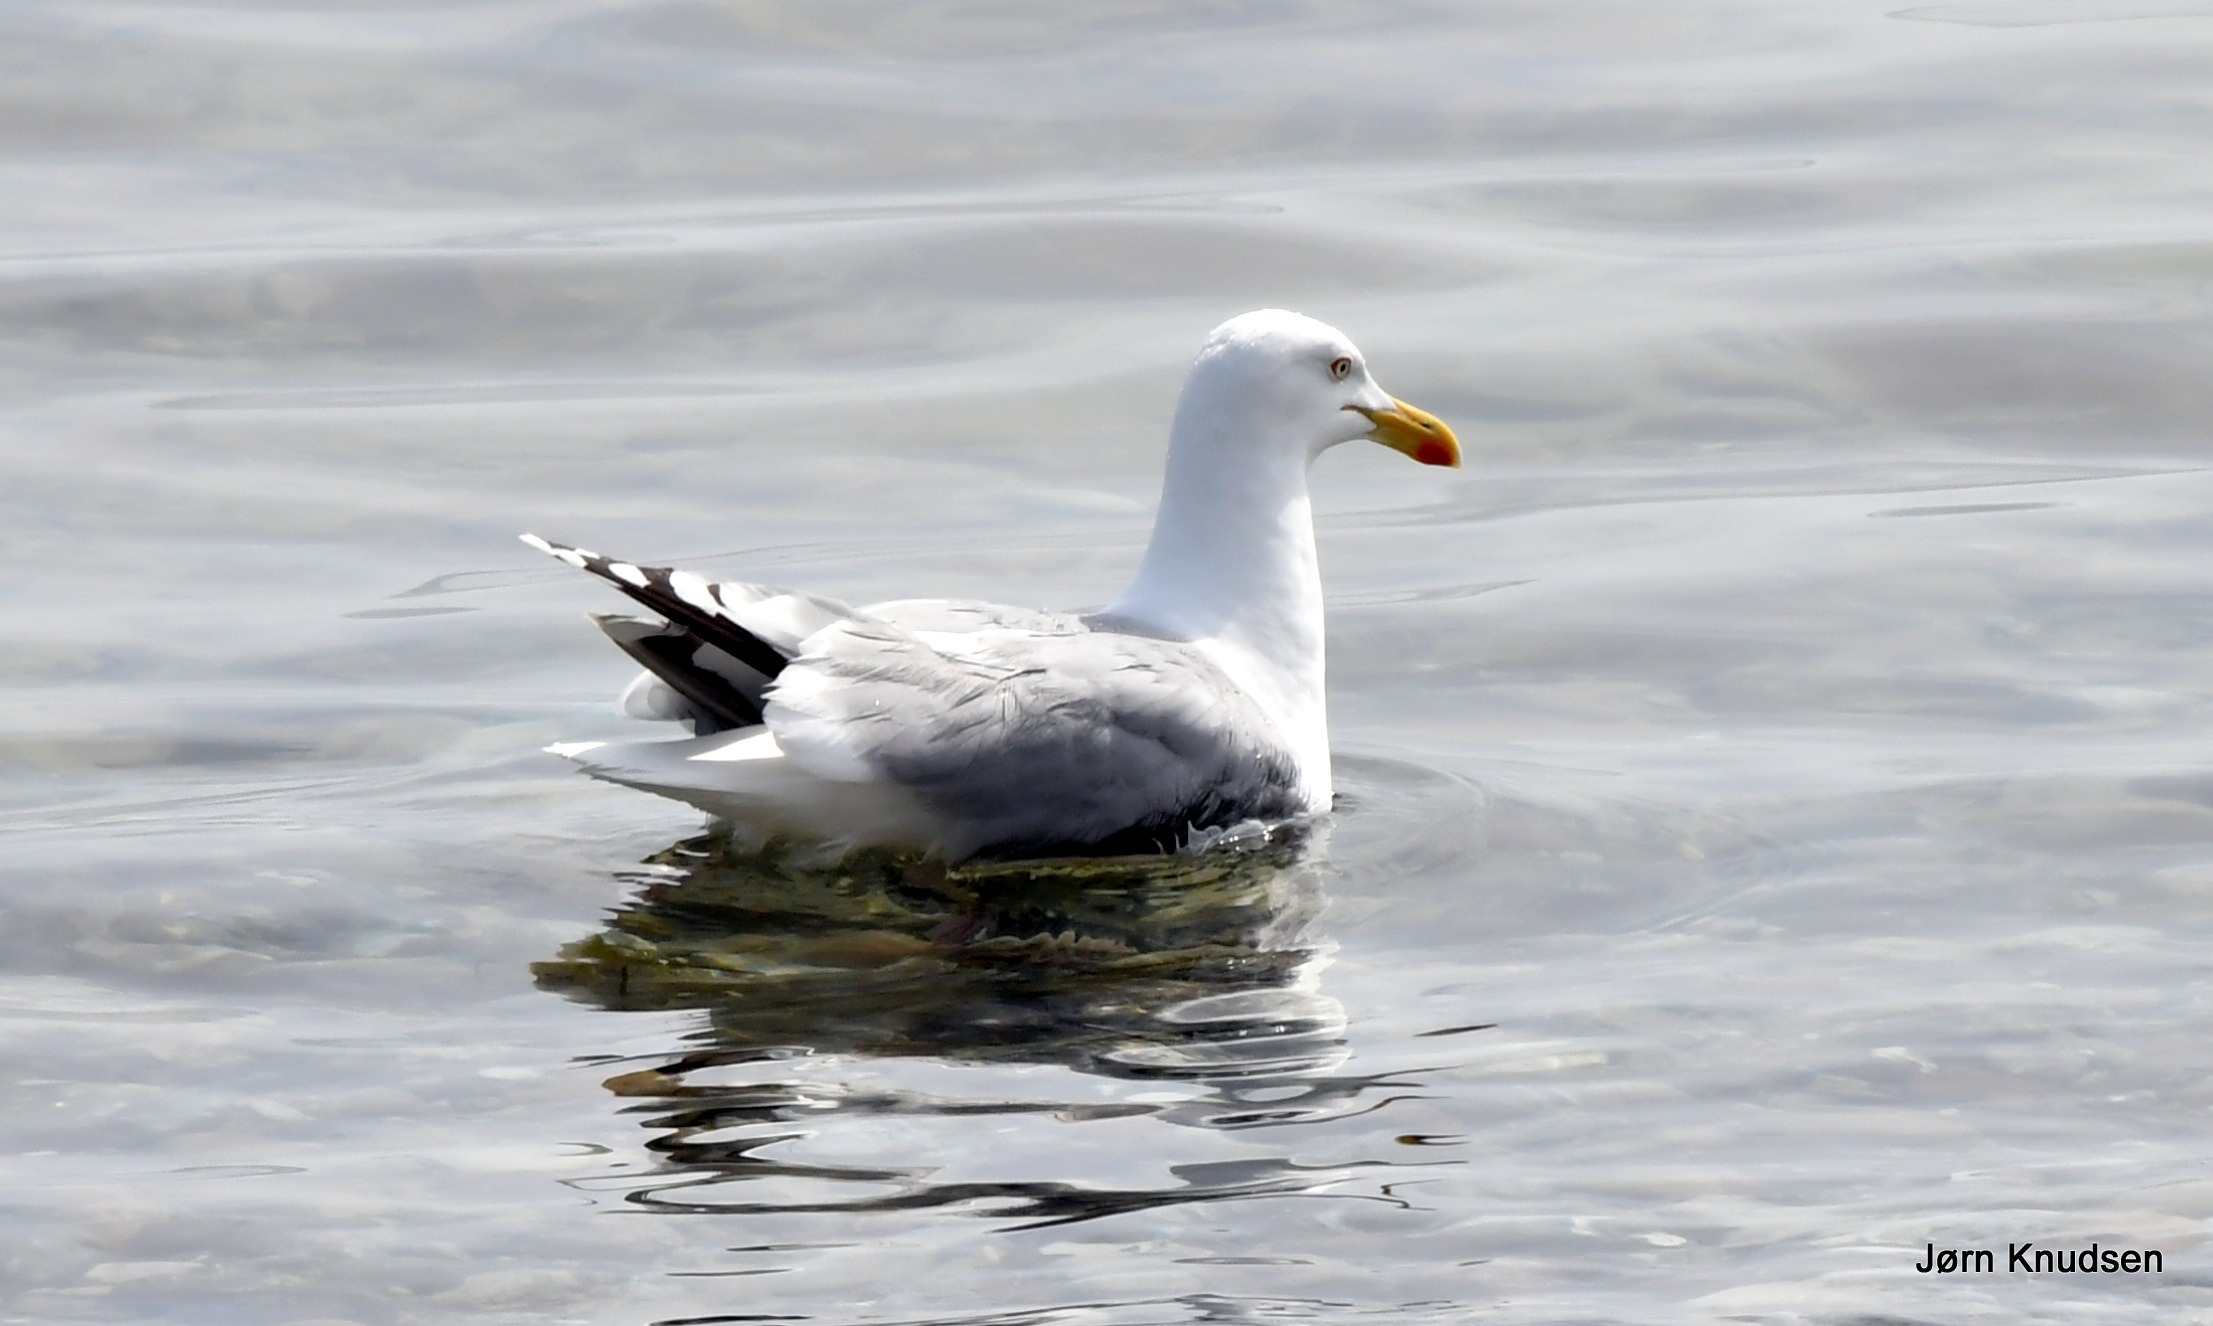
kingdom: Animalia
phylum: Chordata
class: Aves
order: Charadriiformes
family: Laridae
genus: Larus
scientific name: Larus argentatus
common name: Sølvmåge
